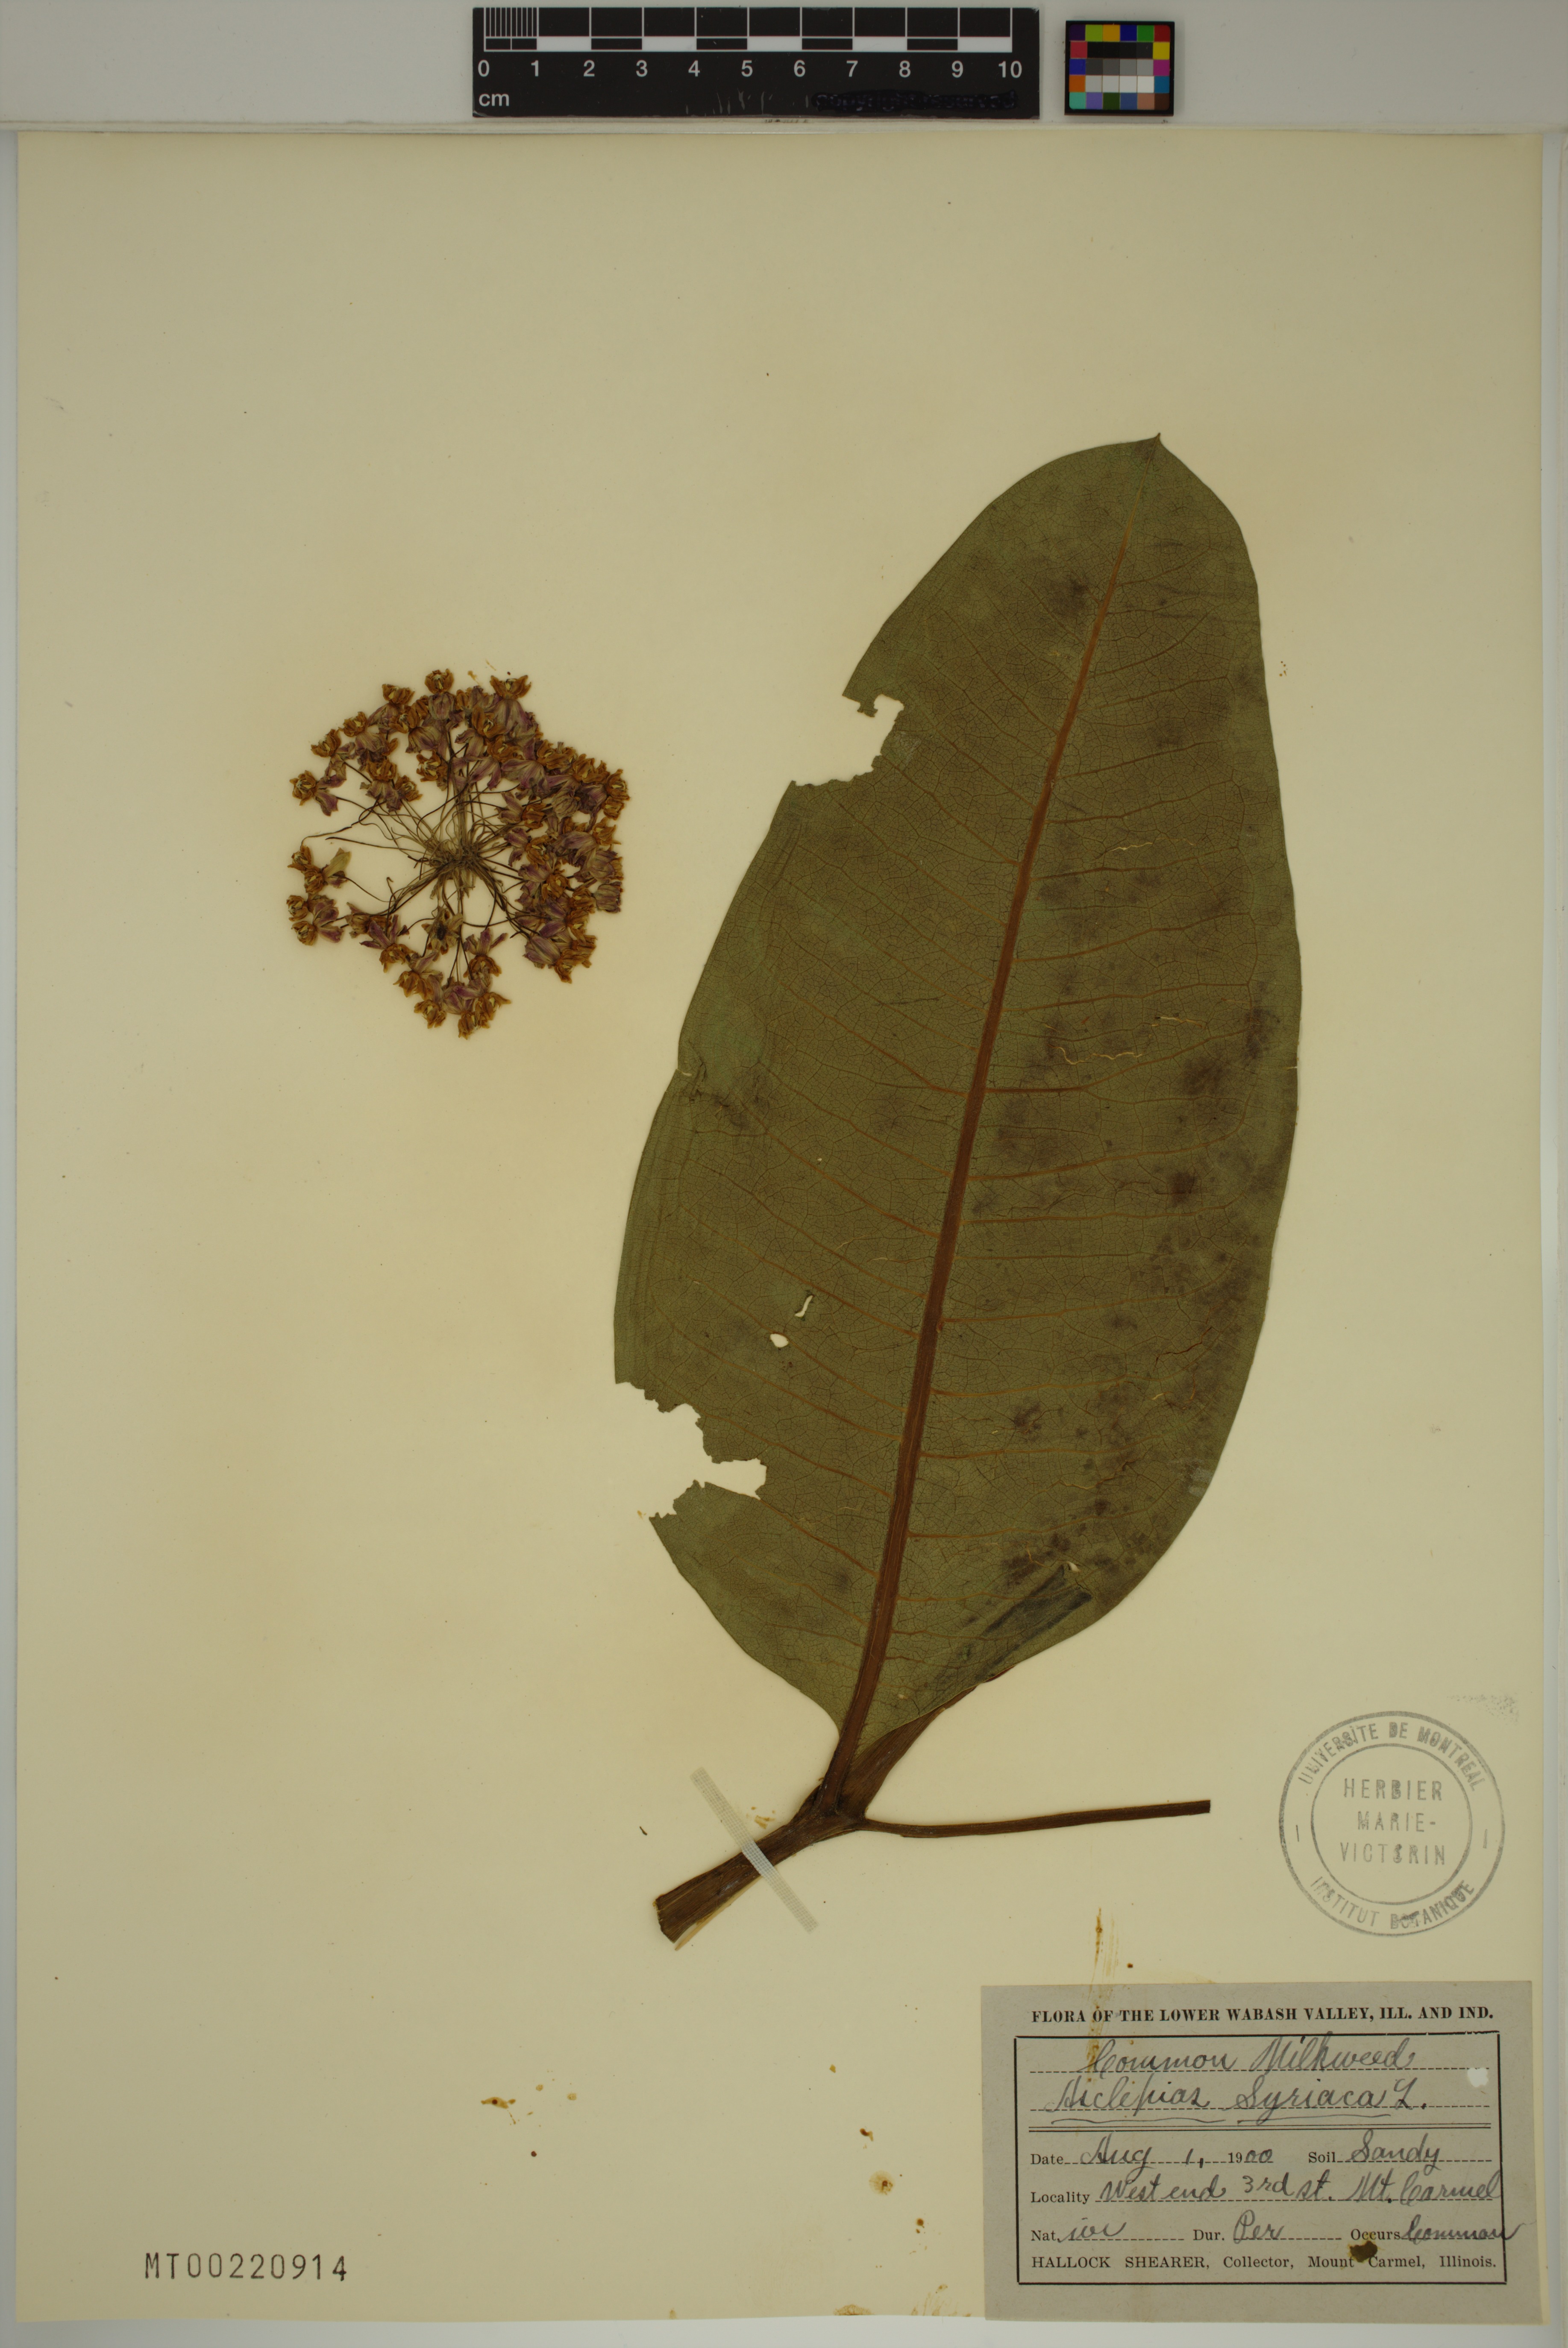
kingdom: Plantae
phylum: Tracheophyta
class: Magnoliopsida
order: Gentianales
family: Apocynaceae
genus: Asclepias
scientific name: Asclepias syriaca
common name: Common milkweed
